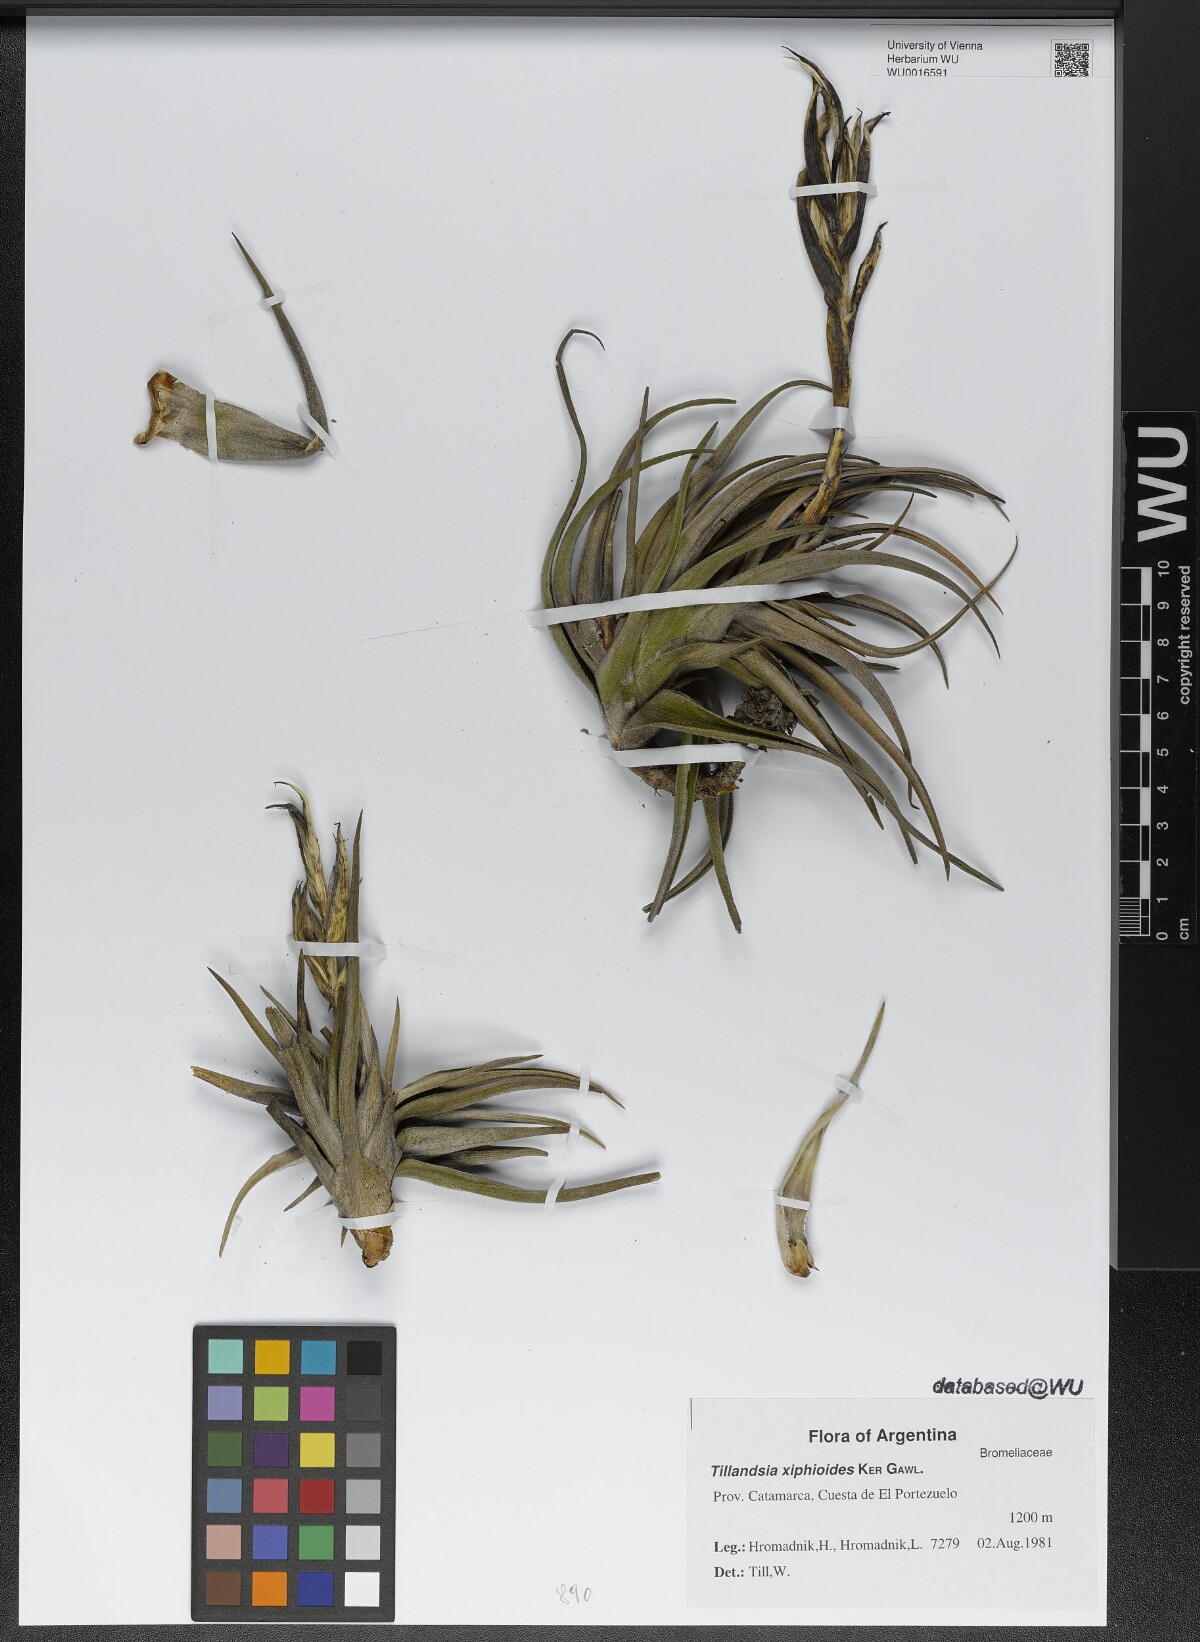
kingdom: Plantae
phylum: Tracheophyta
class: Liliopsida
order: Poales
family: Bromeliaceae
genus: Tillandsia
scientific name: Tillandsia xiphioides
